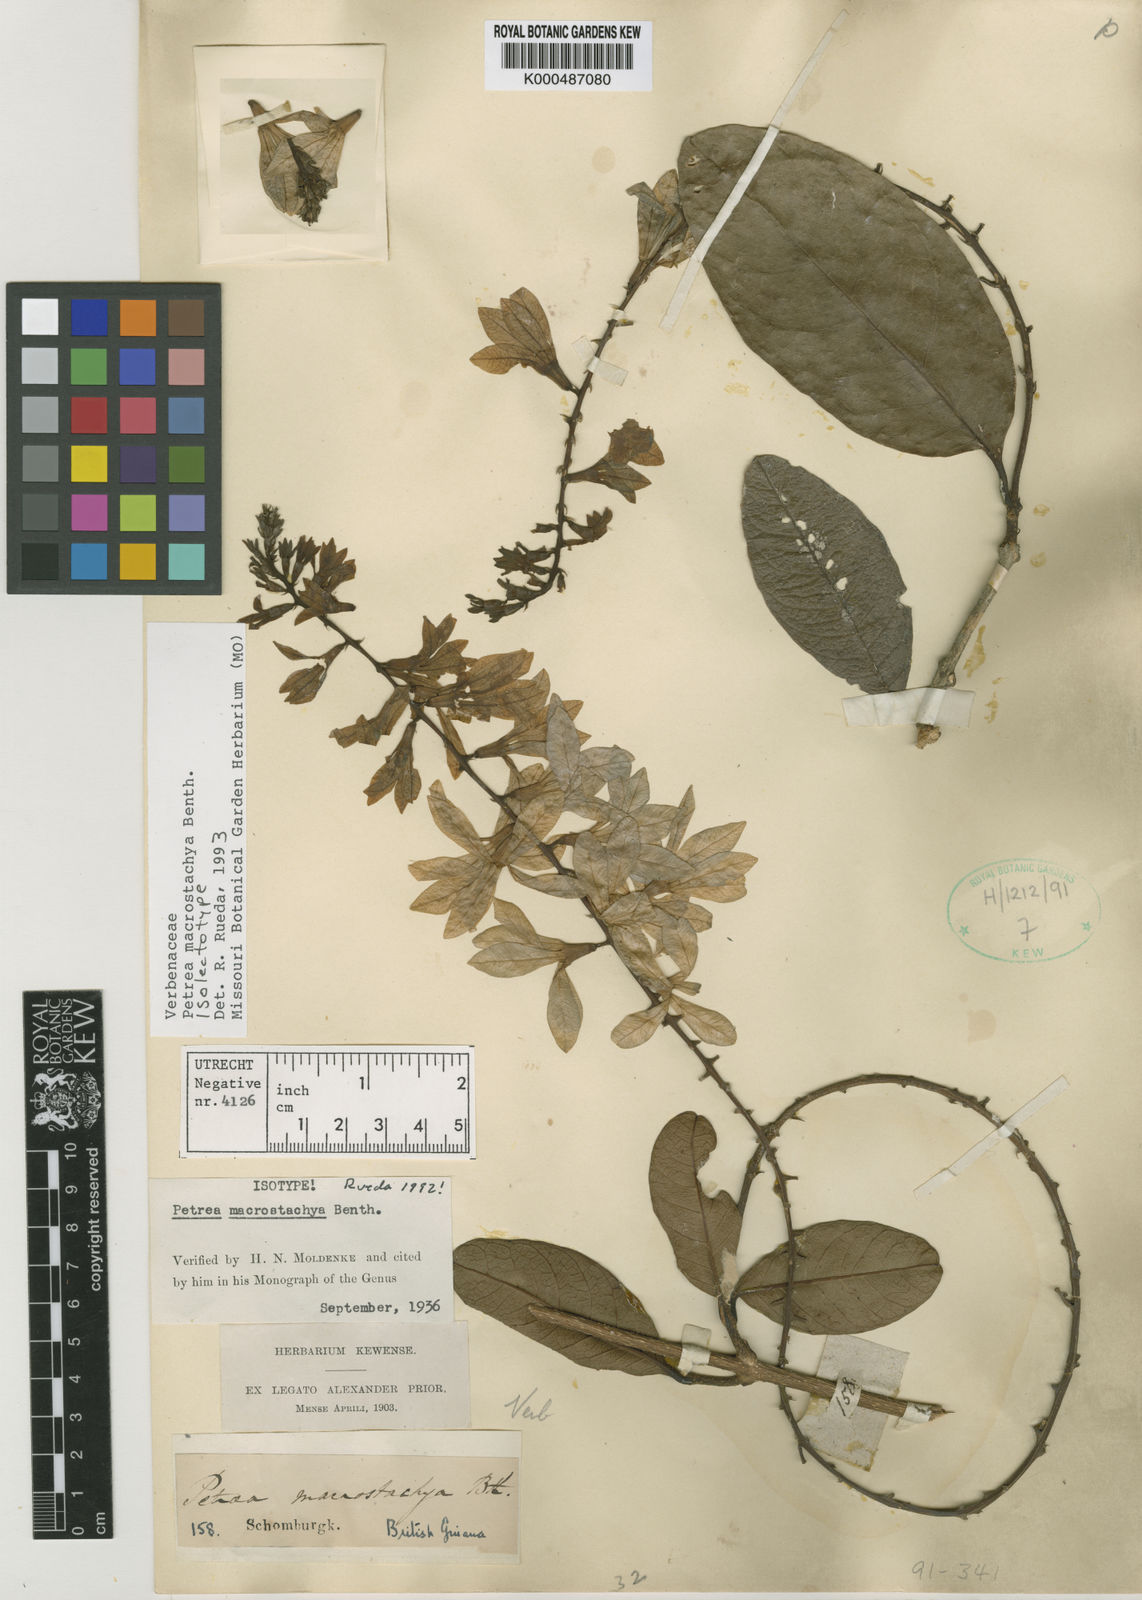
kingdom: Plantae
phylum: Tracheophyta
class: Magnoliopsida
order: Lamiales
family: Verbenaceae
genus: Petrea
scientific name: Petrea macrostachya
